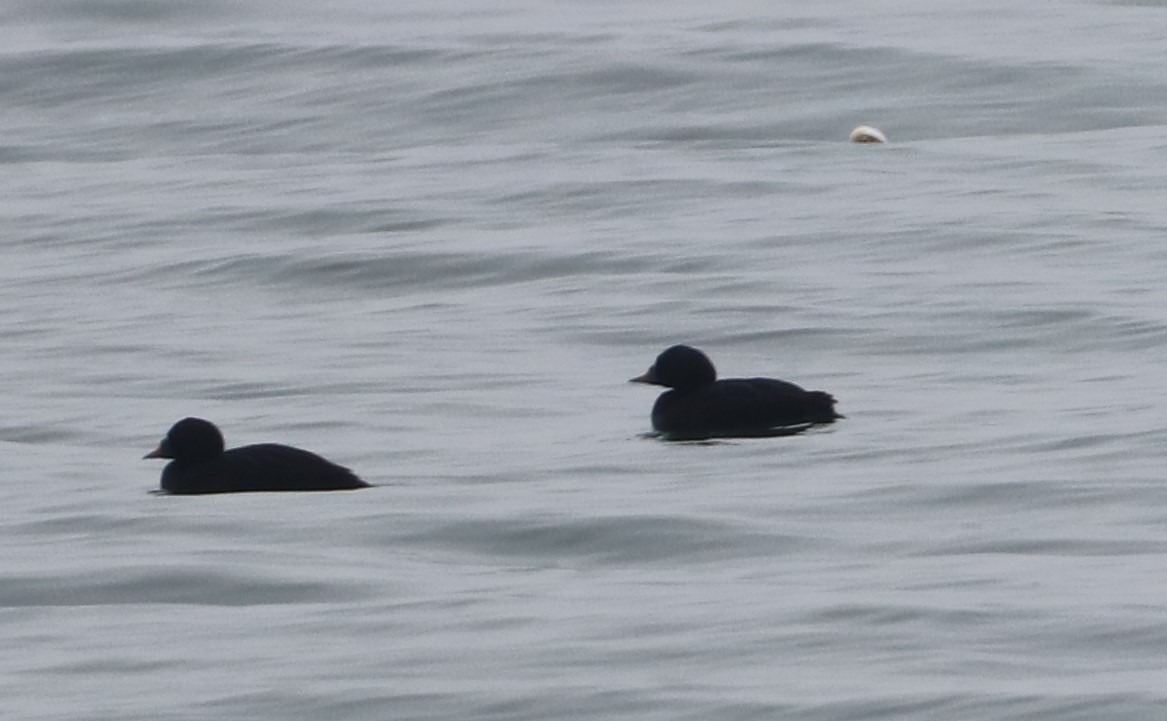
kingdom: Animalia
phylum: Chordata
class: Aves
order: Anseriformes
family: Anatidae
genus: Melanitta
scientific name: Melanitta nigra
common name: Sortand
